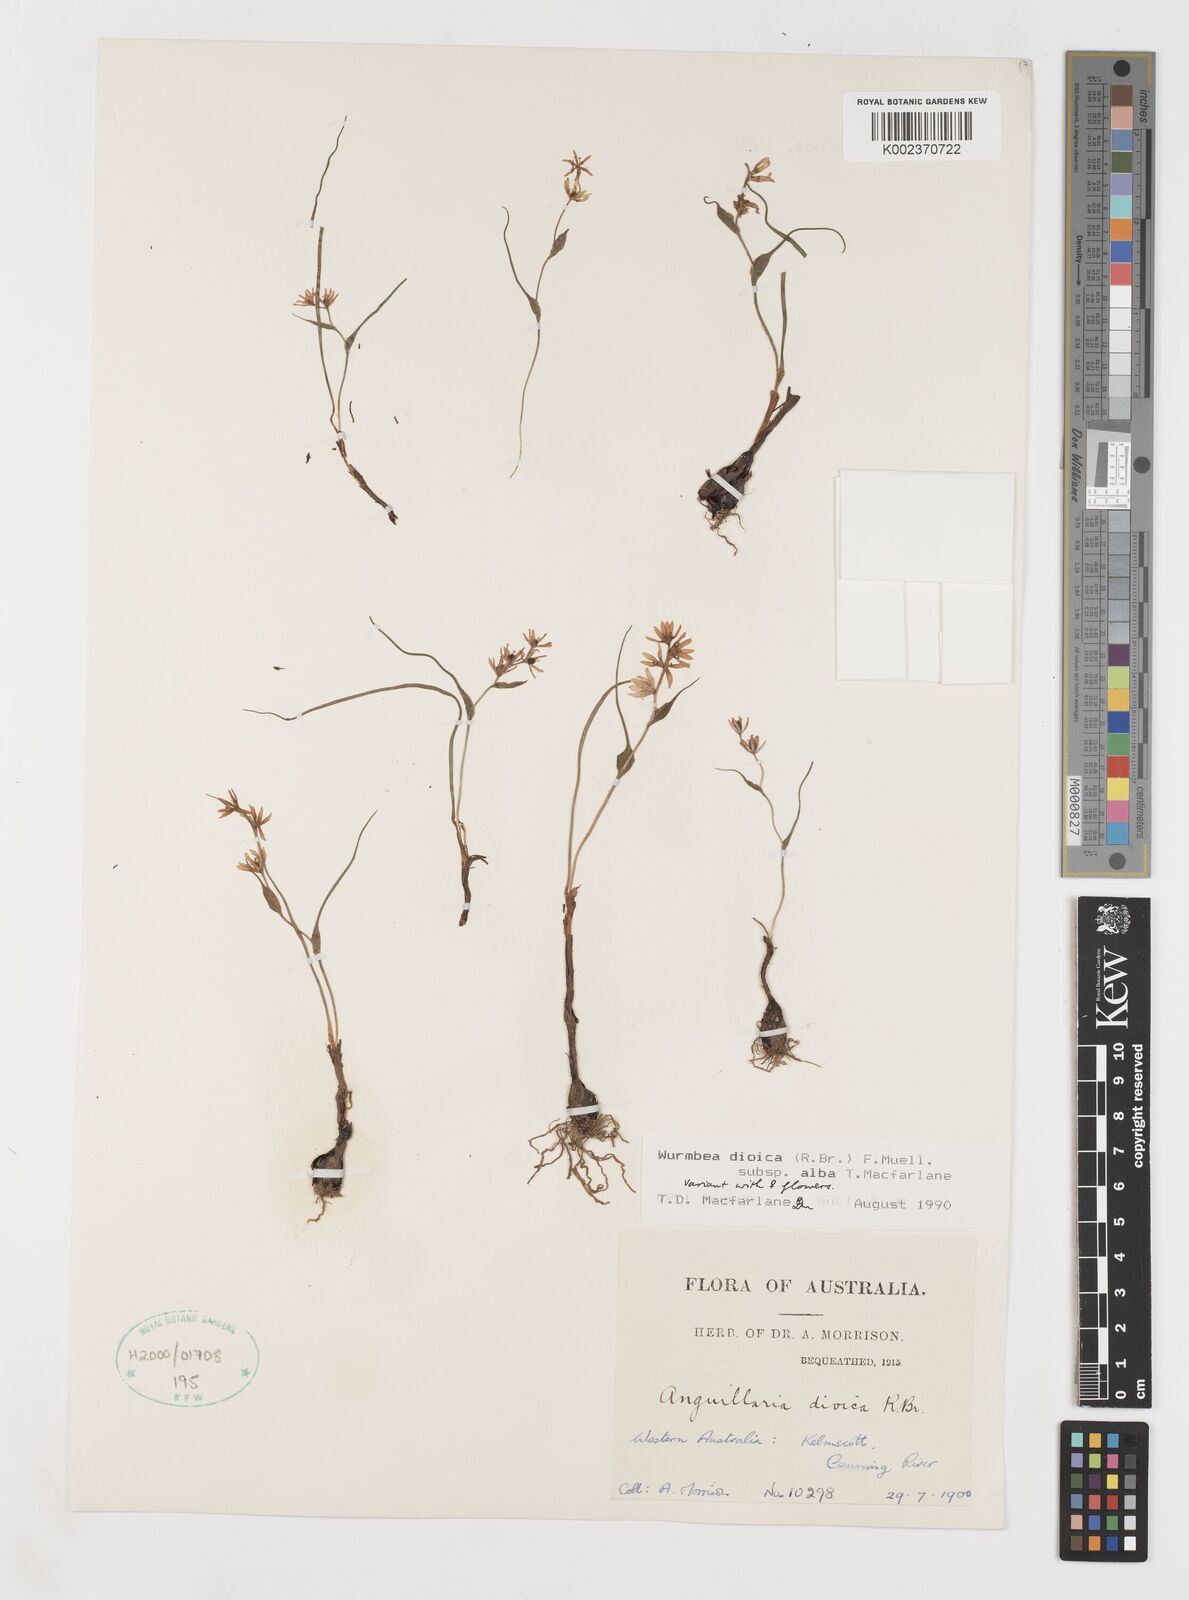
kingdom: Plantae
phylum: Tracheophyta
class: Liliopsida
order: Liliales
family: Colchicaceae
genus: Wurmbea
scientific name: Wurmbea dioica
